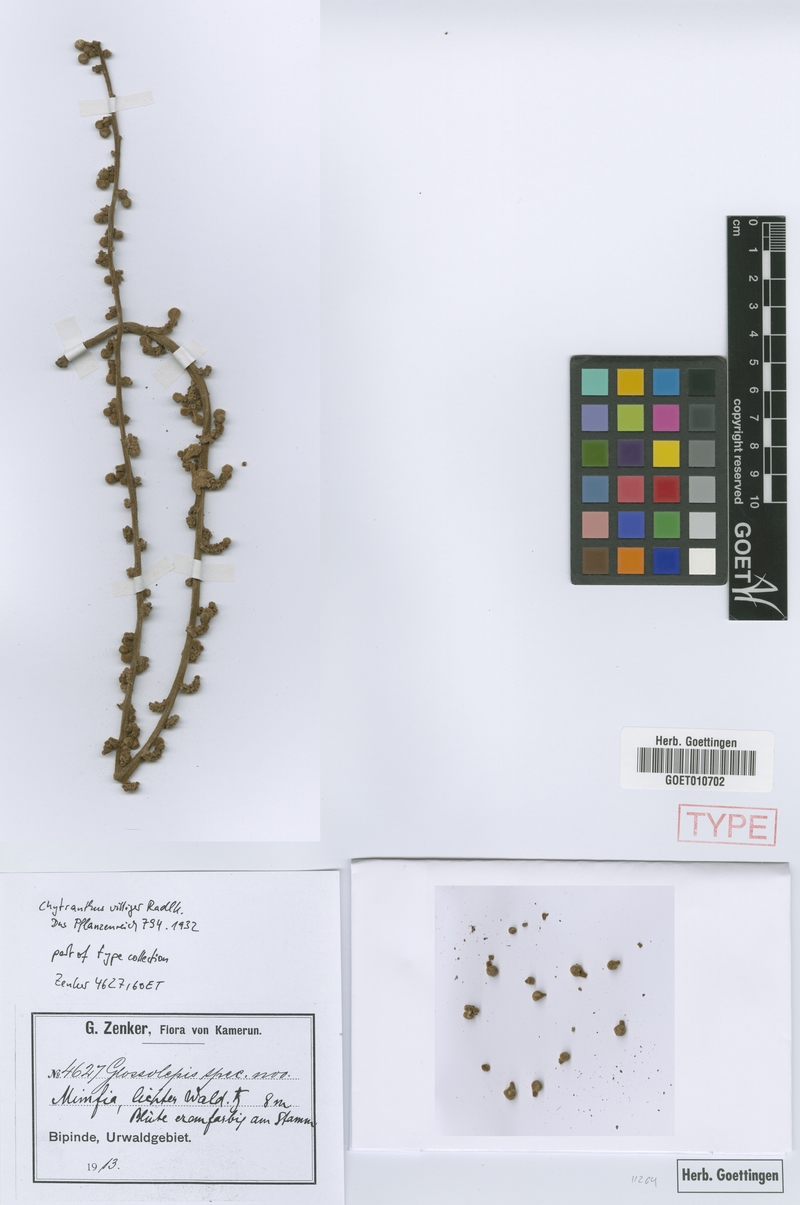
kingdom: Plantae
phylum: Tracheophyta
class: Magnoliopsida
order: Sapindales
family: Sapindaceae
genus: Chytranthus
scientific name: Chytranthus carneus
